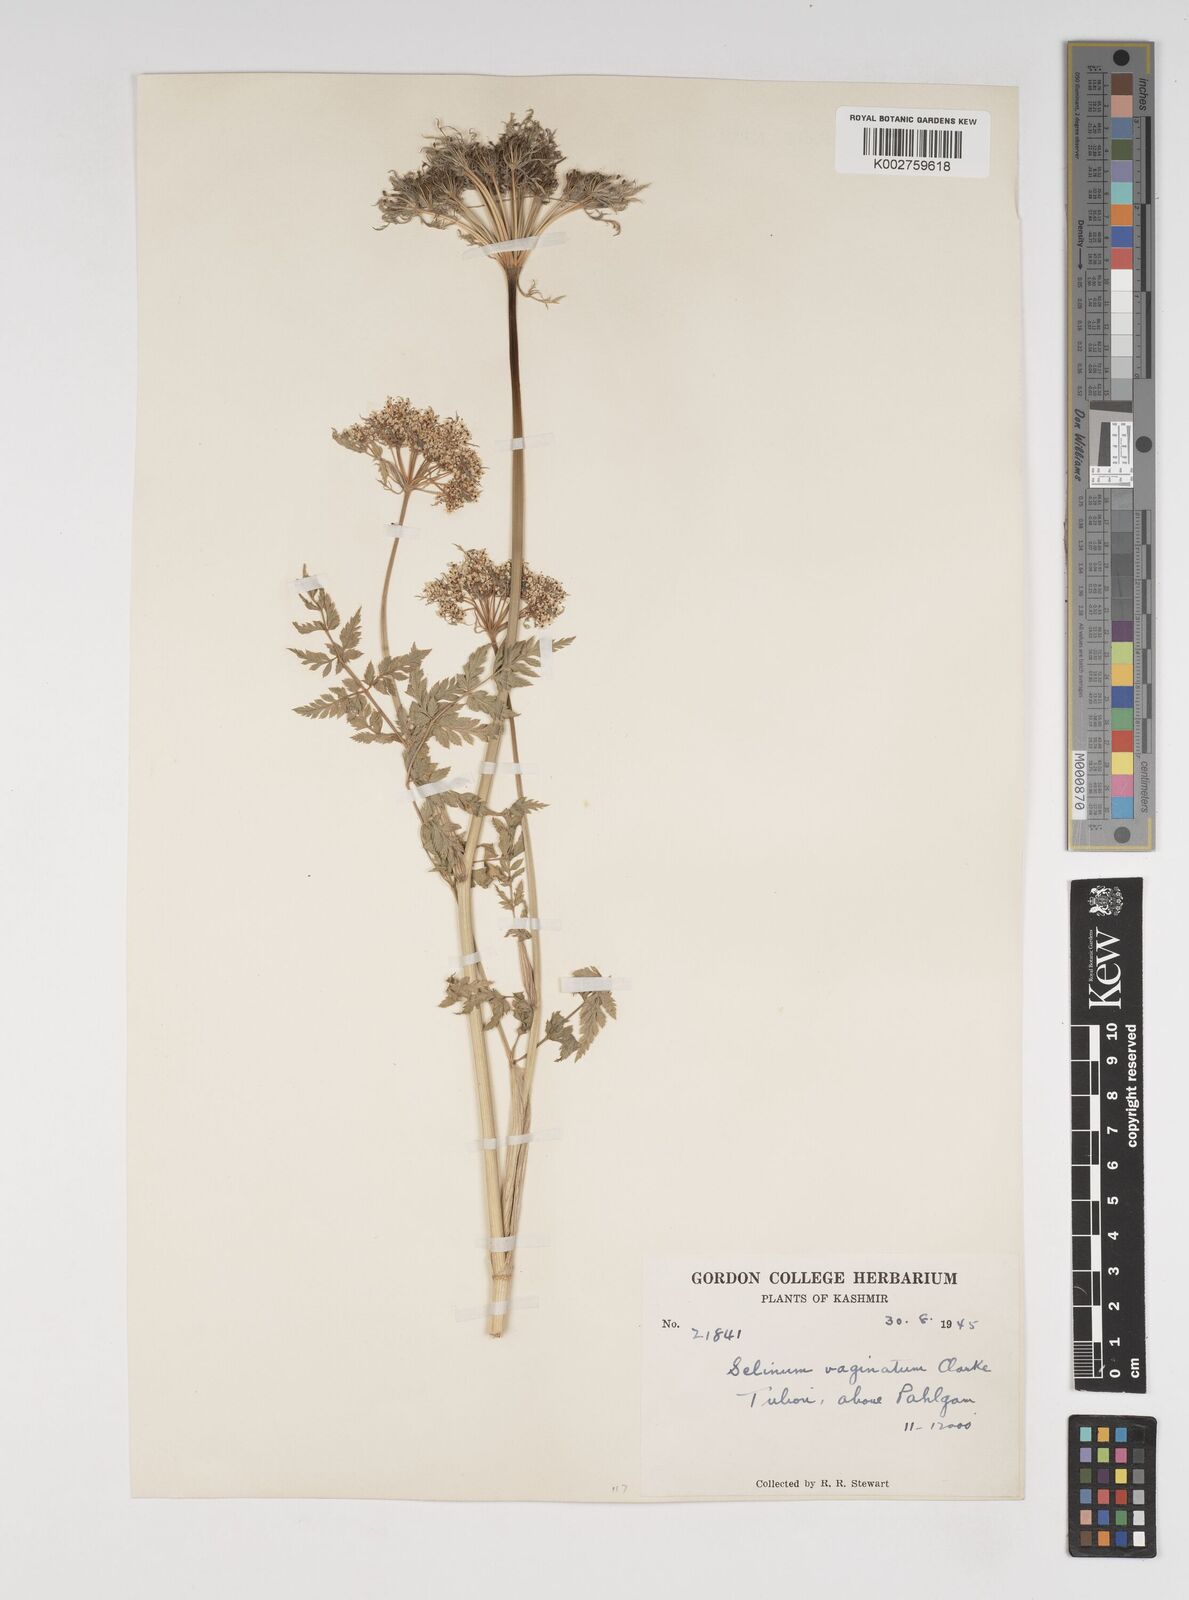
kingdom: Plantae
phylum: Tracheophyta
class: Magnoliopsida
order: Apiales
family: Apiaceae
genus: Selinum
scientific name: Selinum vaginatum
